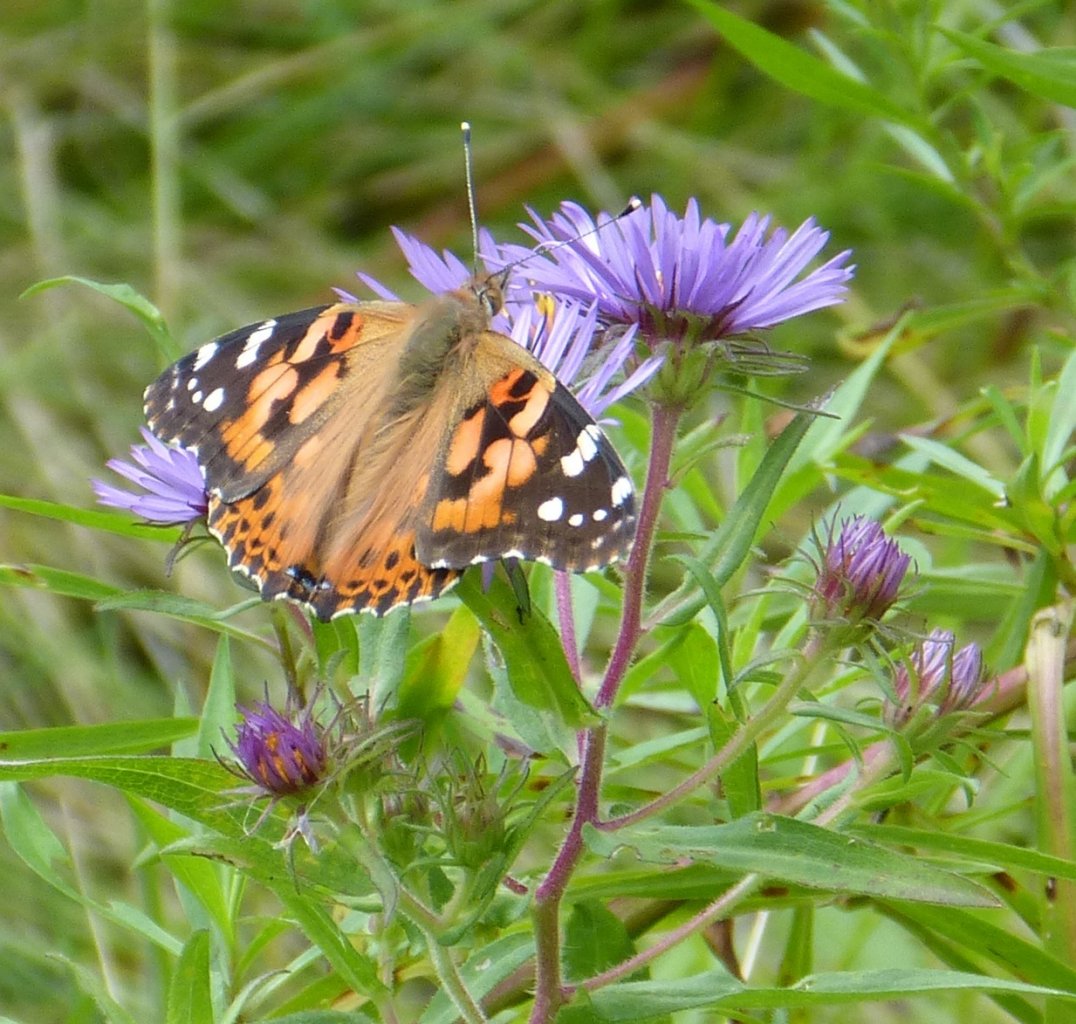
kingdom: Animalia
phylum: Arthropoda
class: Insecta
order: Lepidoptera
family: Nymphalidae
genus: Vanessa
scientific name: Vanessa cardui
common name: Painted Lady
